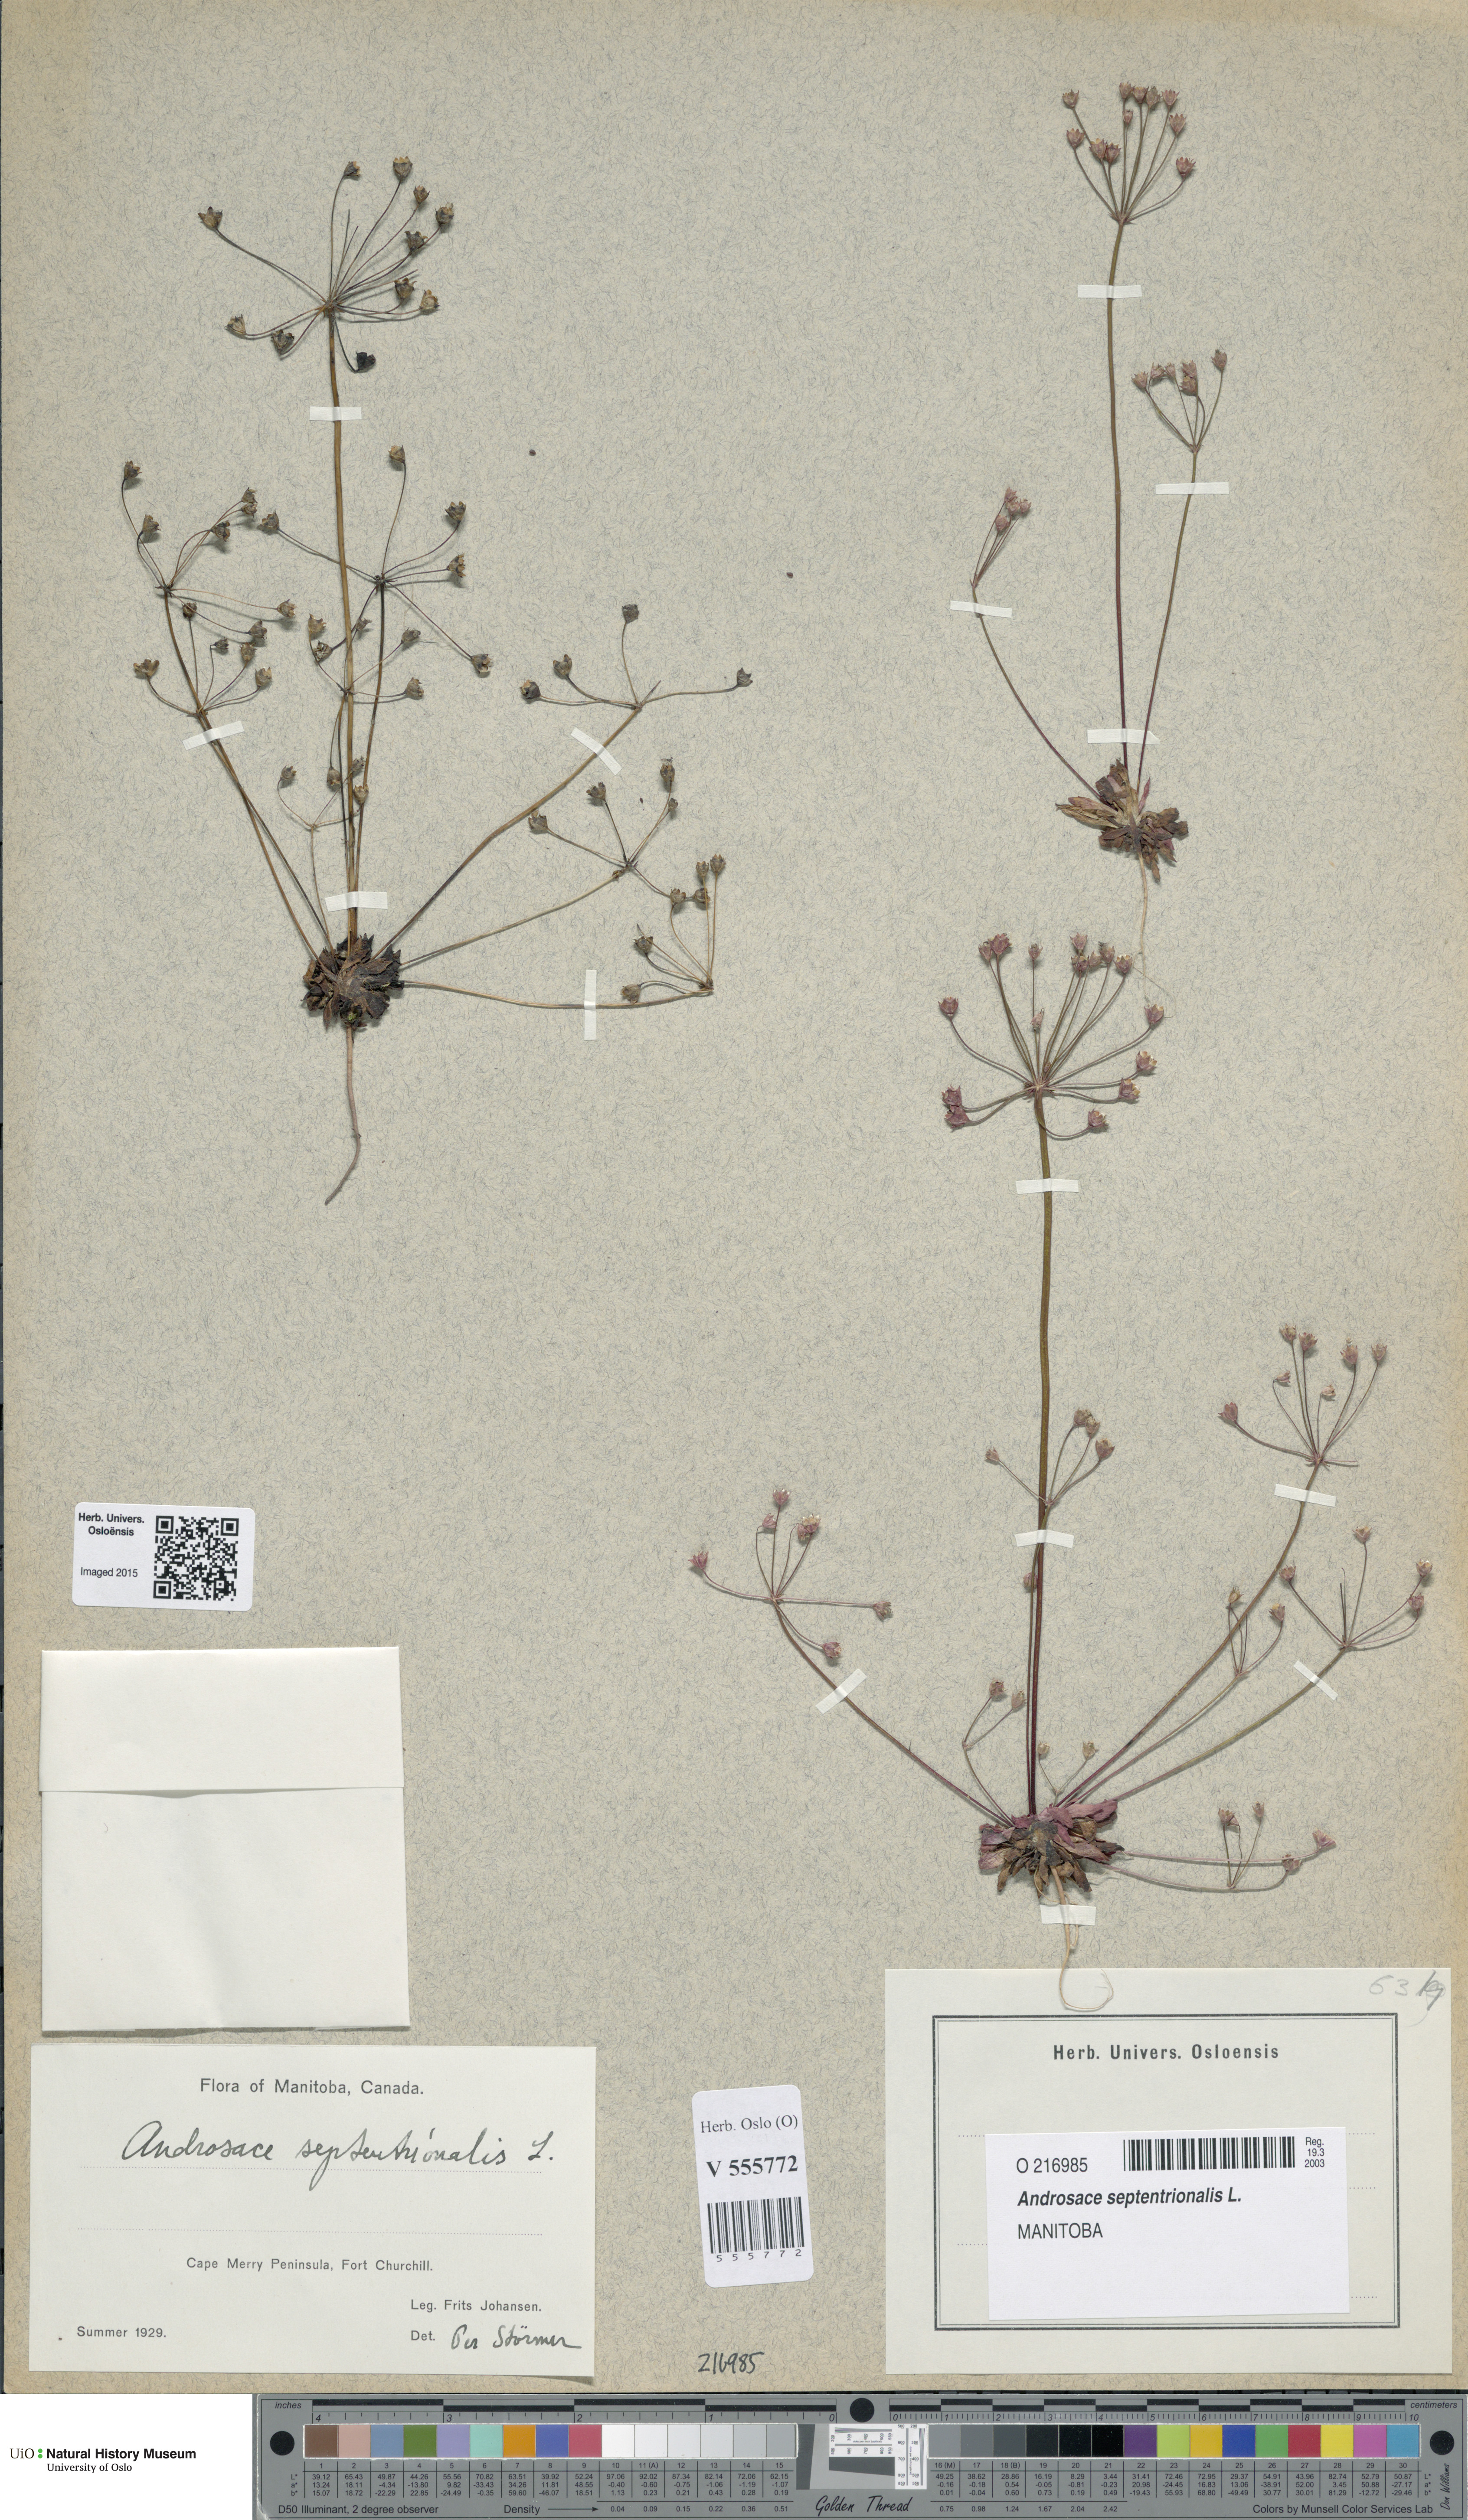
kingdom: Plantae
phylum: Tracheophyta
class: Magnoliopsida
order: Ericales
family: Primulaceae
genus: Androsace
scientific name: Androsace septentrionalis
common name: Hairy northern fairy-candelabra
